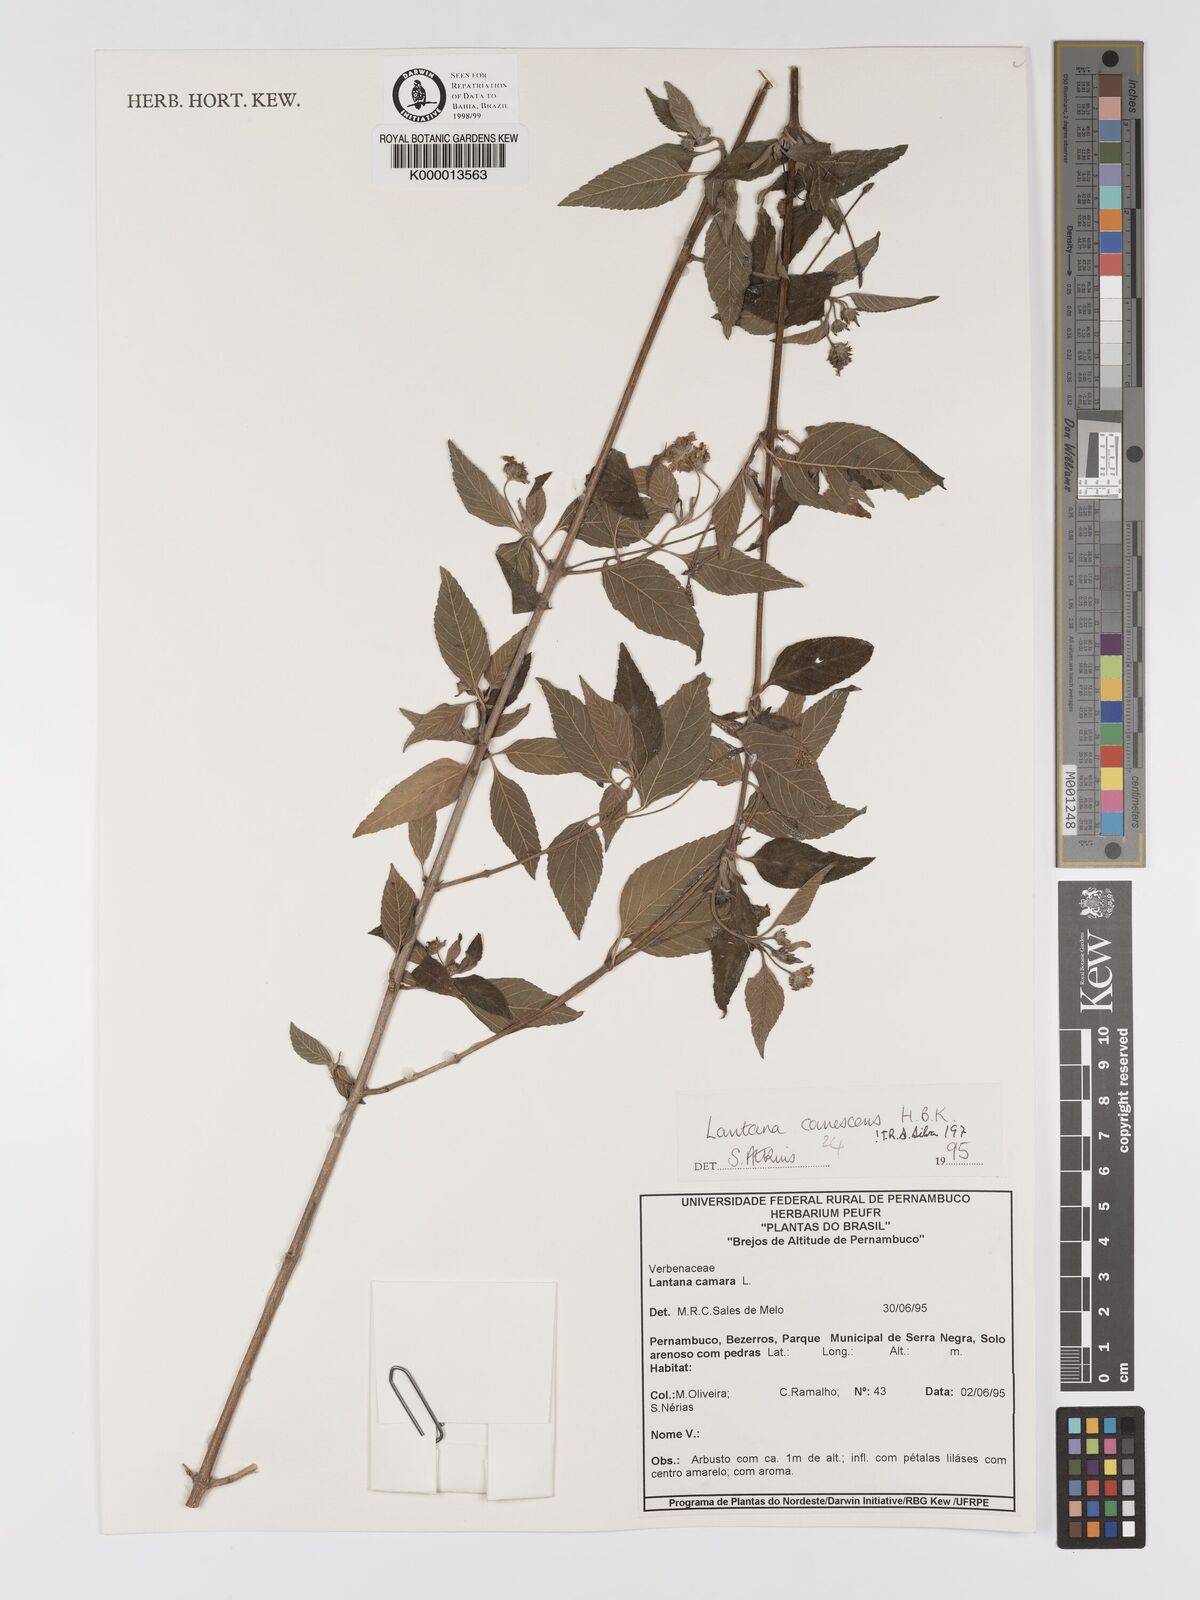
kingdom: Plantae
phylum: Tracheophyta
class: Magnoliopsida
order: Lamiales
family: Verbenaceae
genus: Lantana
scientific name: Lantana canescens
